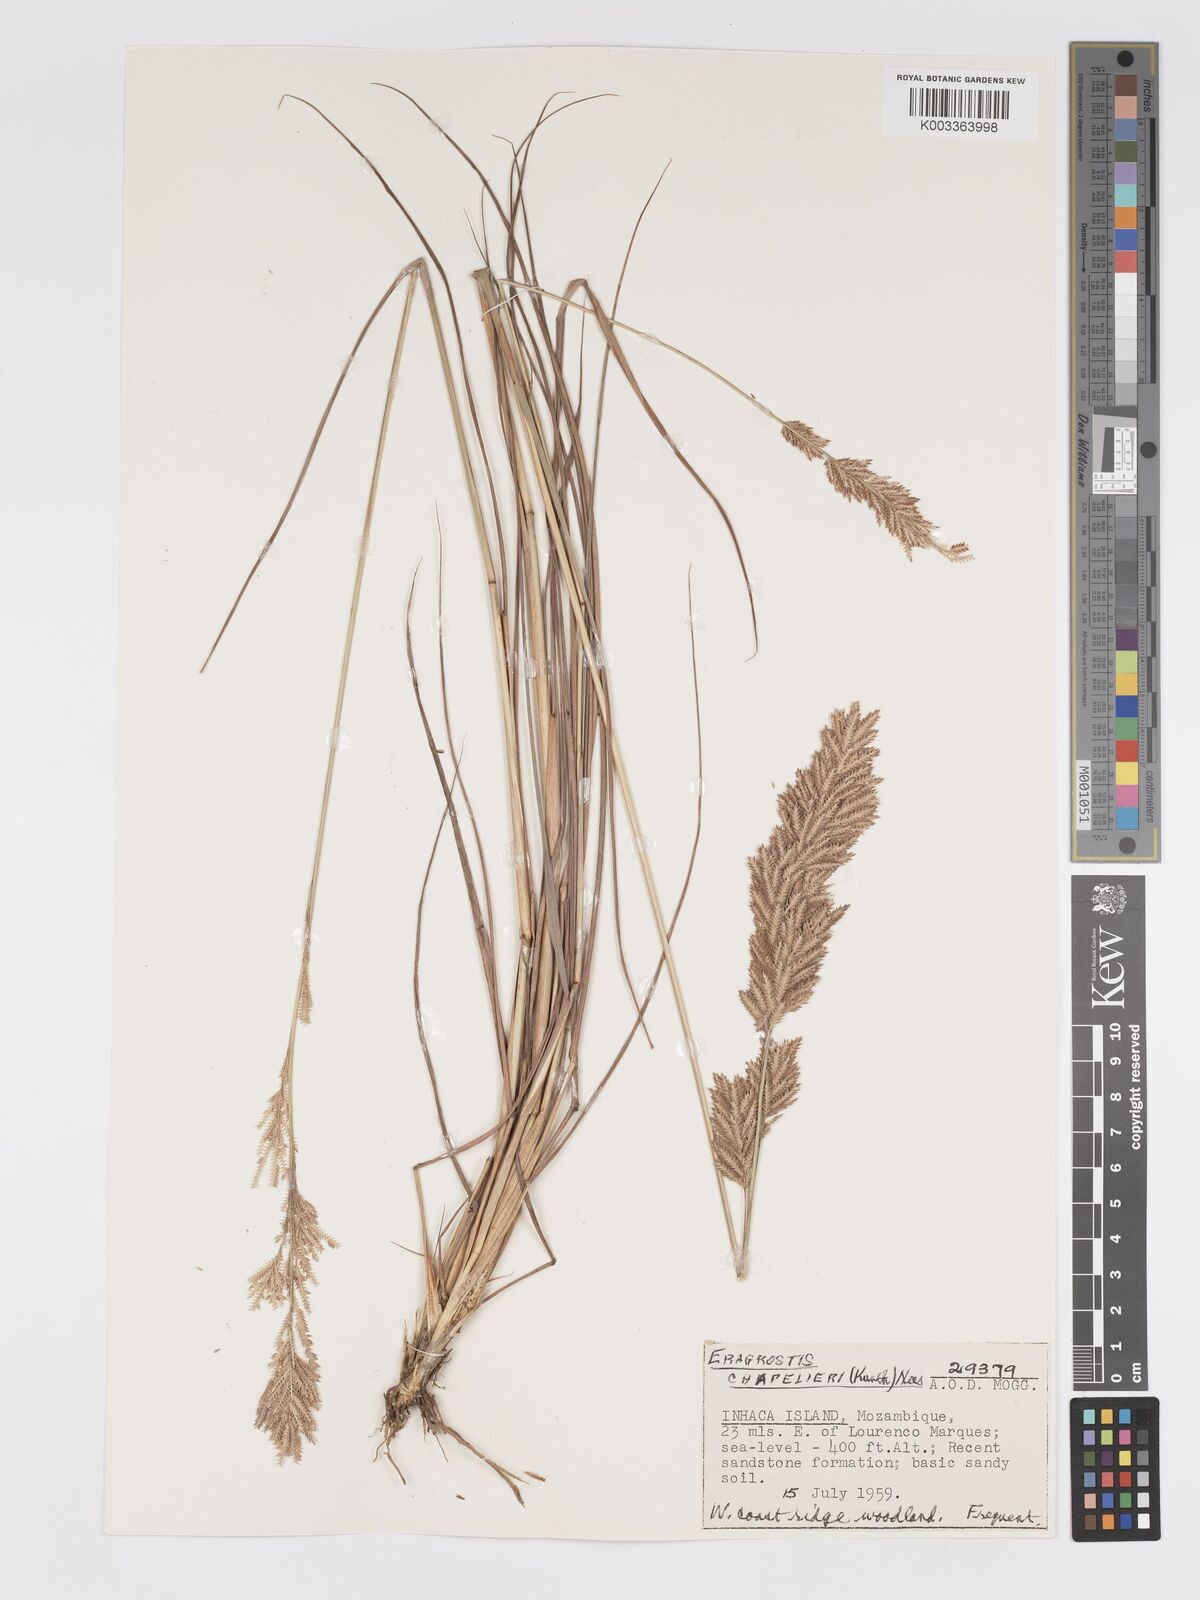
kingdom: Plantae
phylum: Tracheophyta
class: Liliopsida
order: Poales
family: Poaceae
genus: Eragrostis
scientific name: Eragrostis chapelieri
